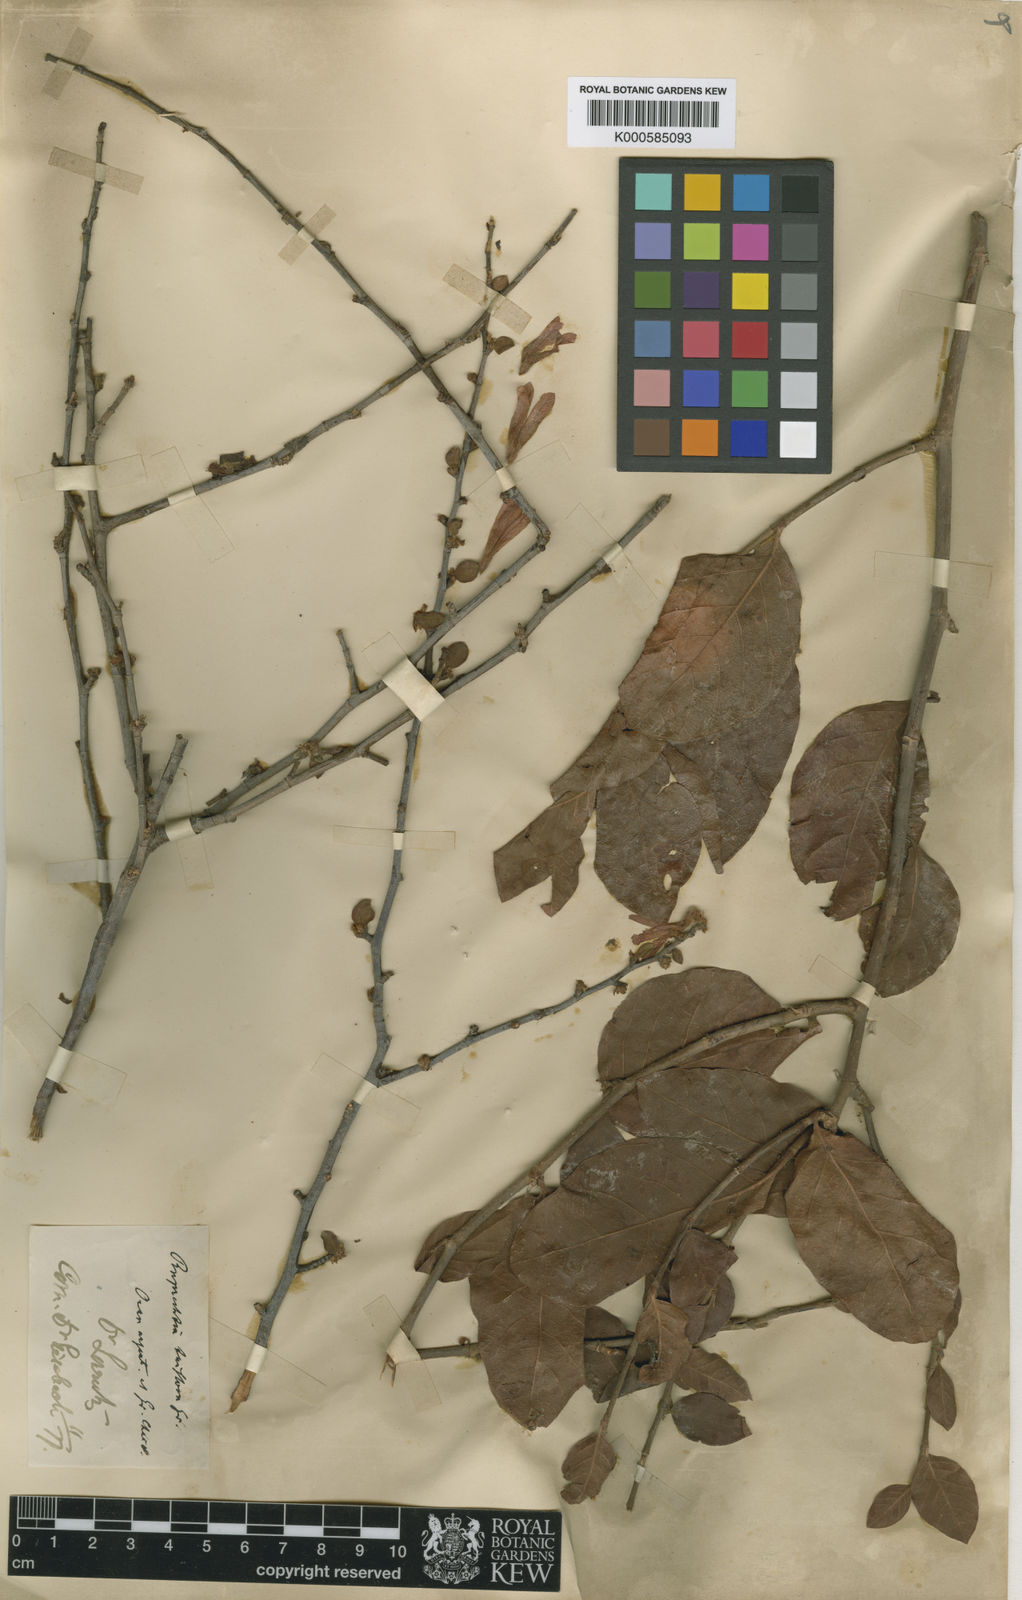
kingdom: Plantae
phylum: Tracheophyta
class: Magnoliopsida
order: Caryophyllales
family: Polygonaceae
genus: Salta
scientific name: Salta triflora
